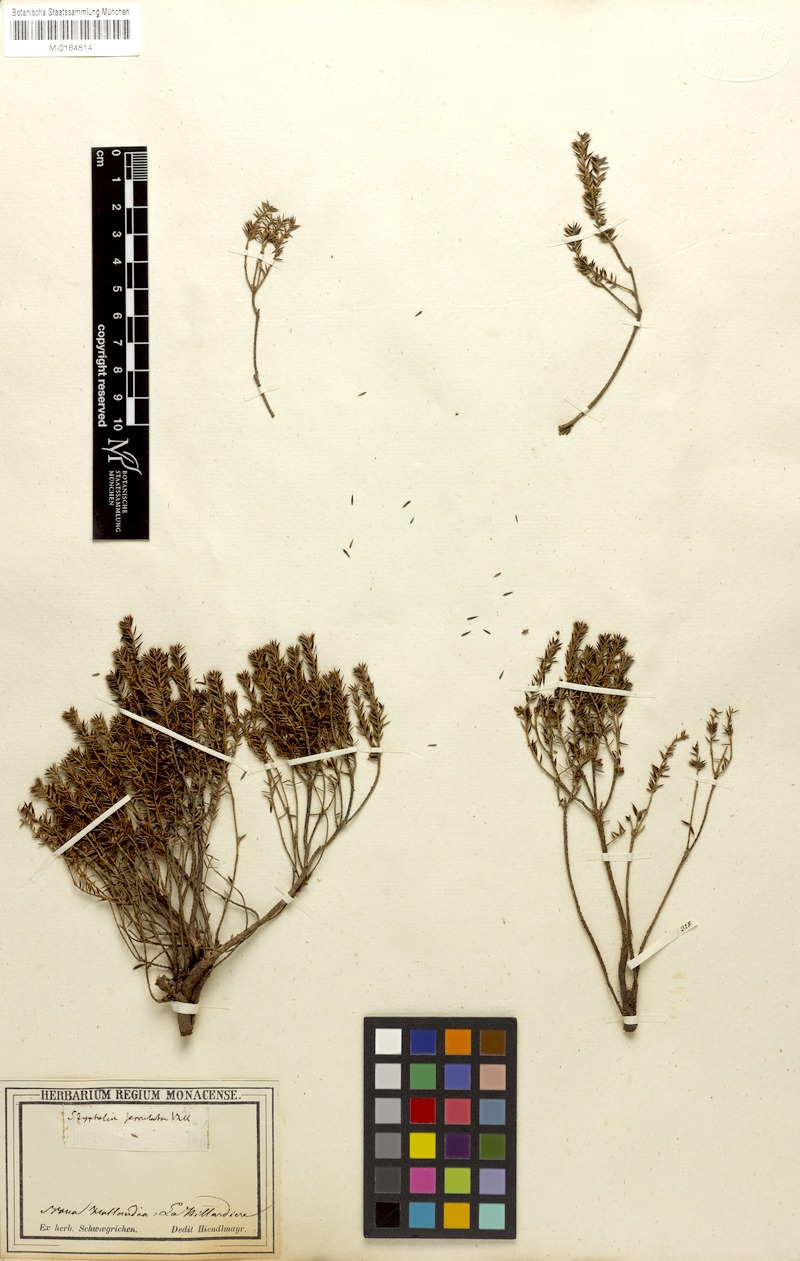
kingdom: Plantae
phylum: Tracheophyta
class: Magnoliopsida
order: Ericales
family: Ericaceae
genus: Acrotriche
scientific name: Acrotriche serrulata
